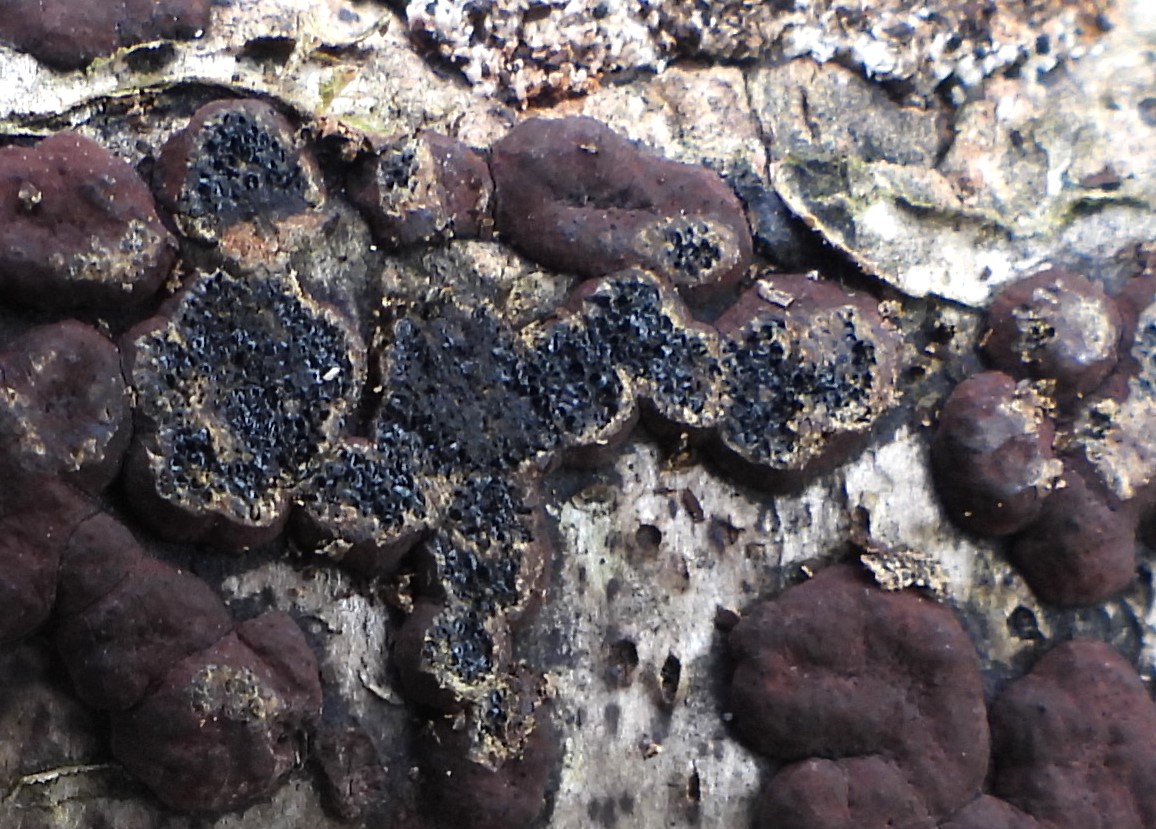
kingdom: Fungi
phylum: Ascomycota
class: Sordariomycetes
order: Xylariales
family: Hypoxylaceae
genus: Hypoxylon
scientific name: Hypoxylon fuscum
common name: kegleformet kulbær
